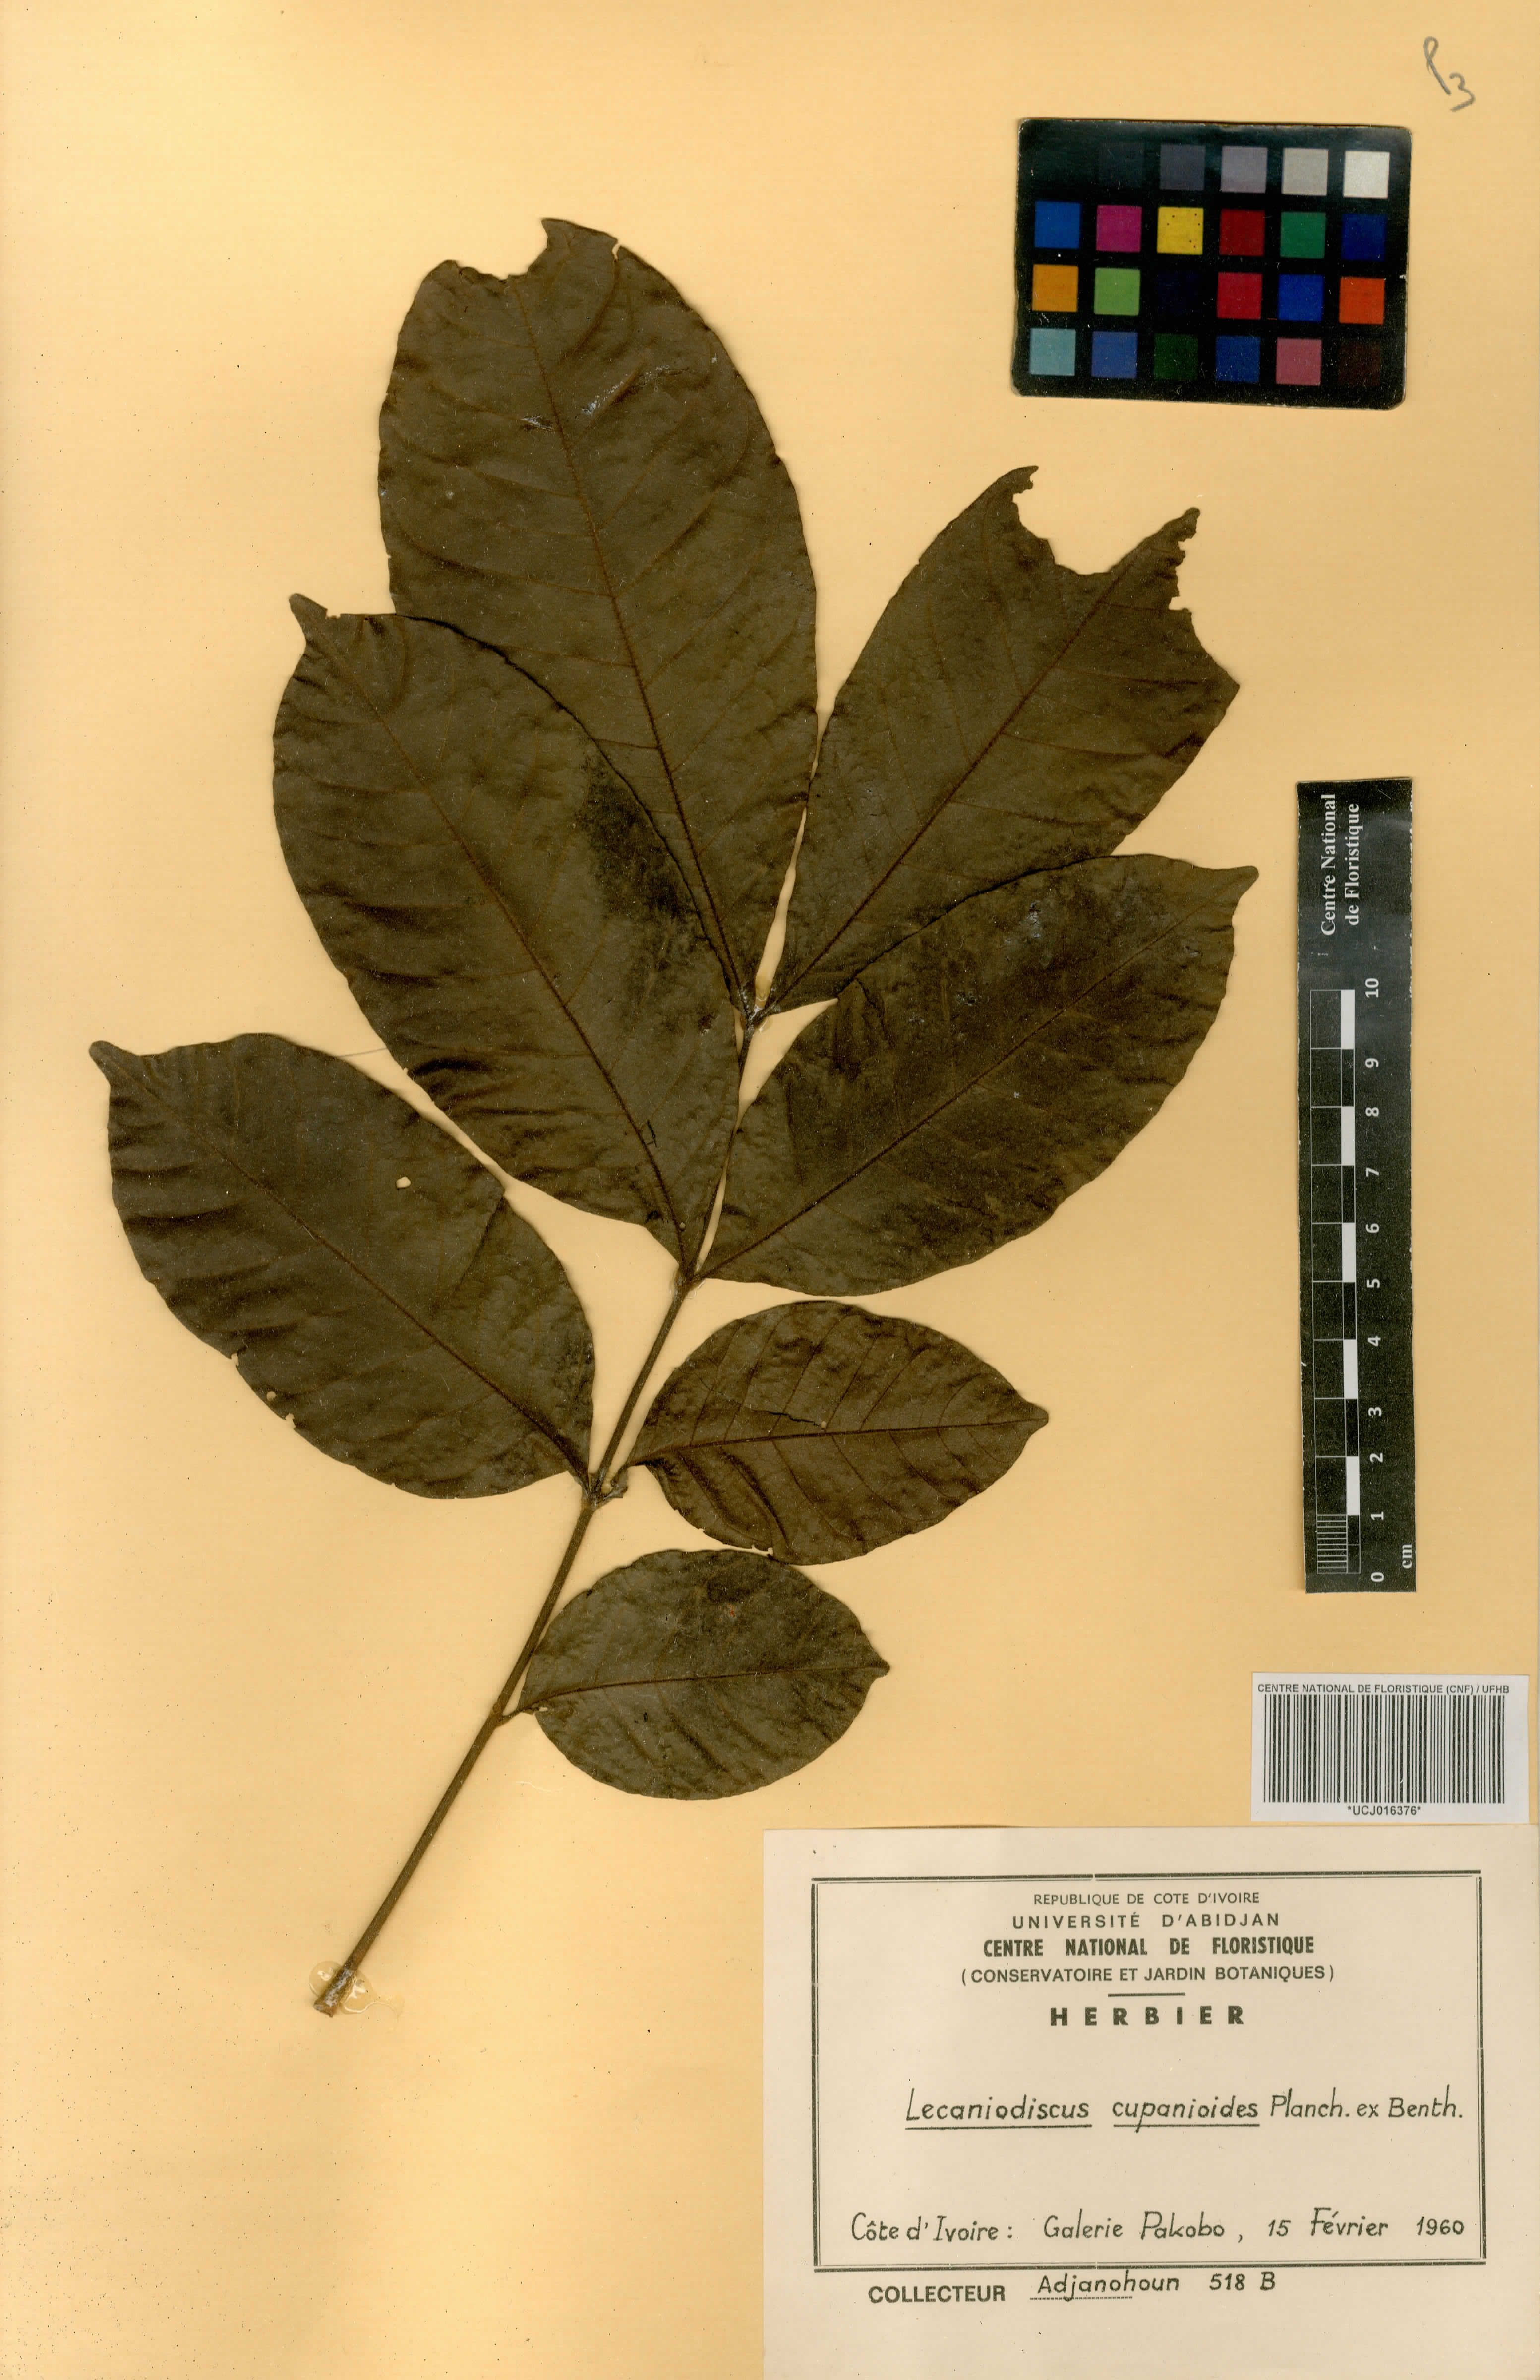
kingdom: Plantae
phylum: Tracheophyta
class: Magnoliopsida
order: Sapindales
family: Sapindaceae
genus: Lecaniodiscus
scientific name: Lecaniodiscus cupanioides
